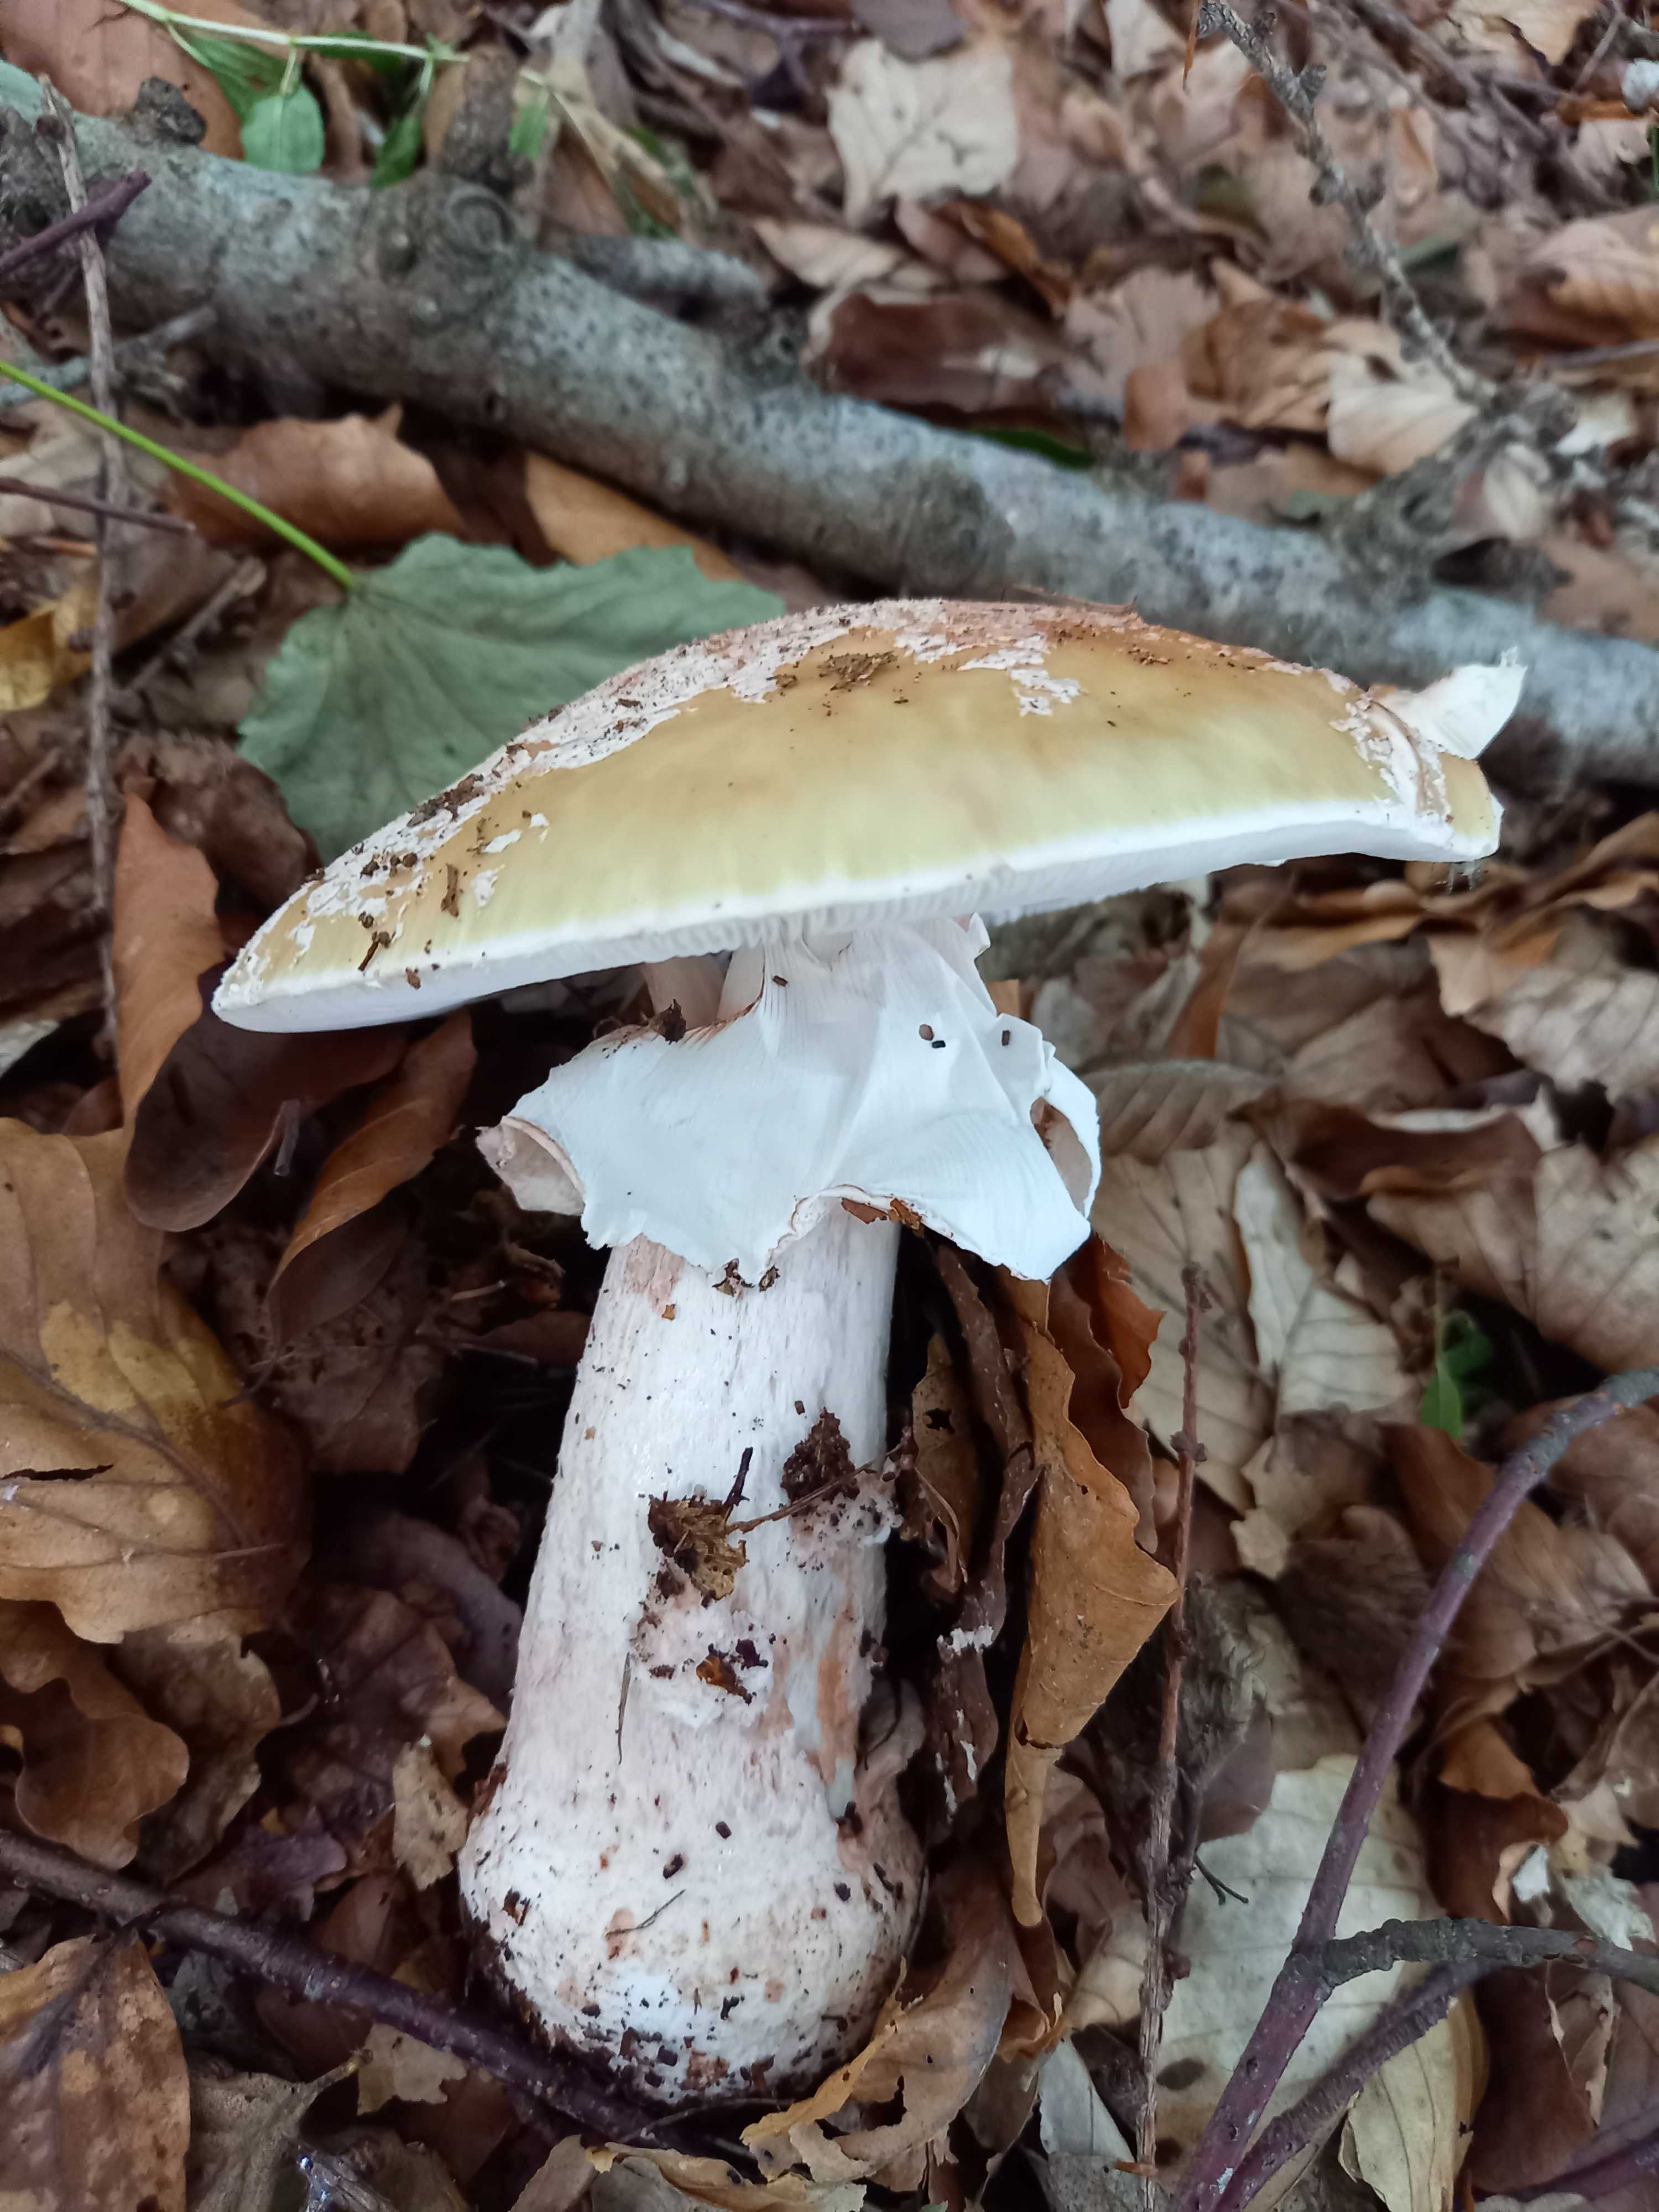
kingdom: Fungi
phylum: Basidiomycota
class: Agaricomycetes
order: Agaricales
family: Amanitaceae
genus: Amanita
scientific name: Amanita rubescens
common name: rødmende fluesvamp
